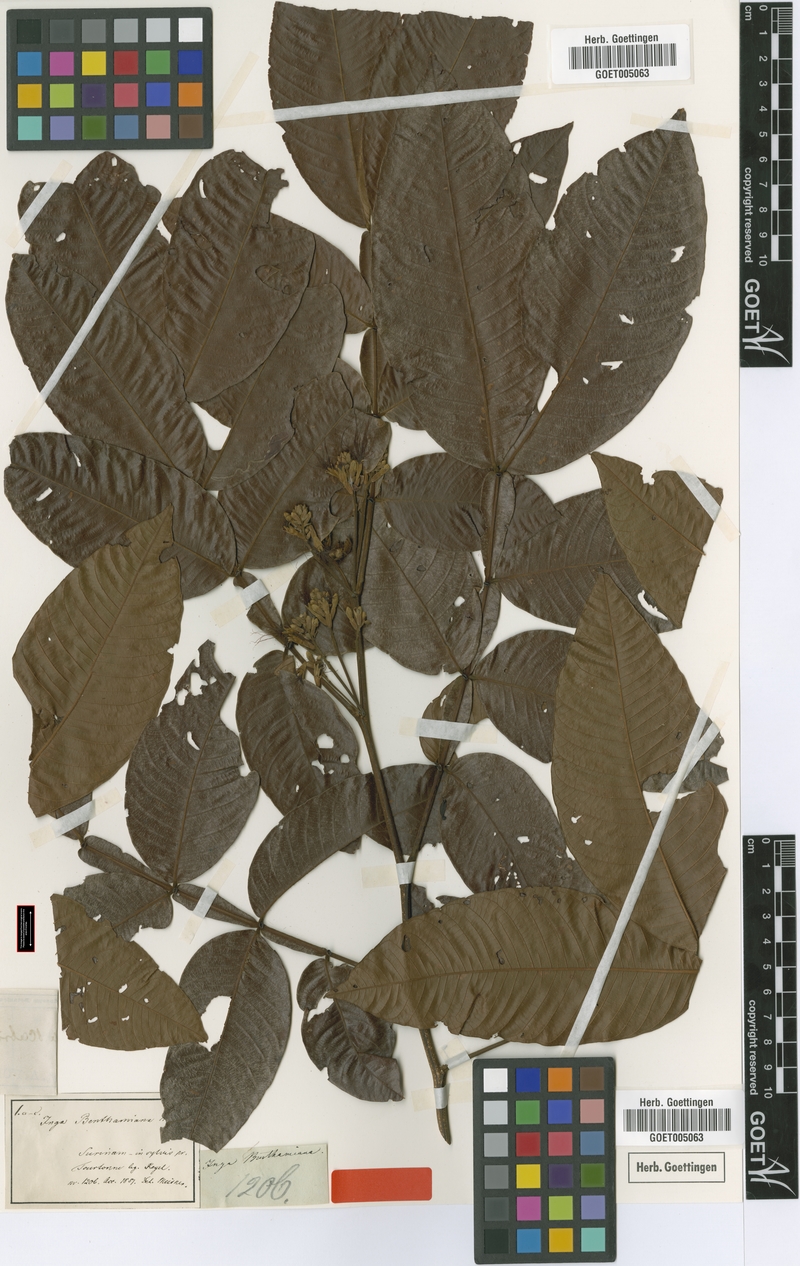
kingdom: Plantae
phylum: Tracheophyta
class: Magnoliopsida
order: Fabales
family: Fabaceae
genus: Inga
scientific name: Inga edulis
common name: Ice cream bean
